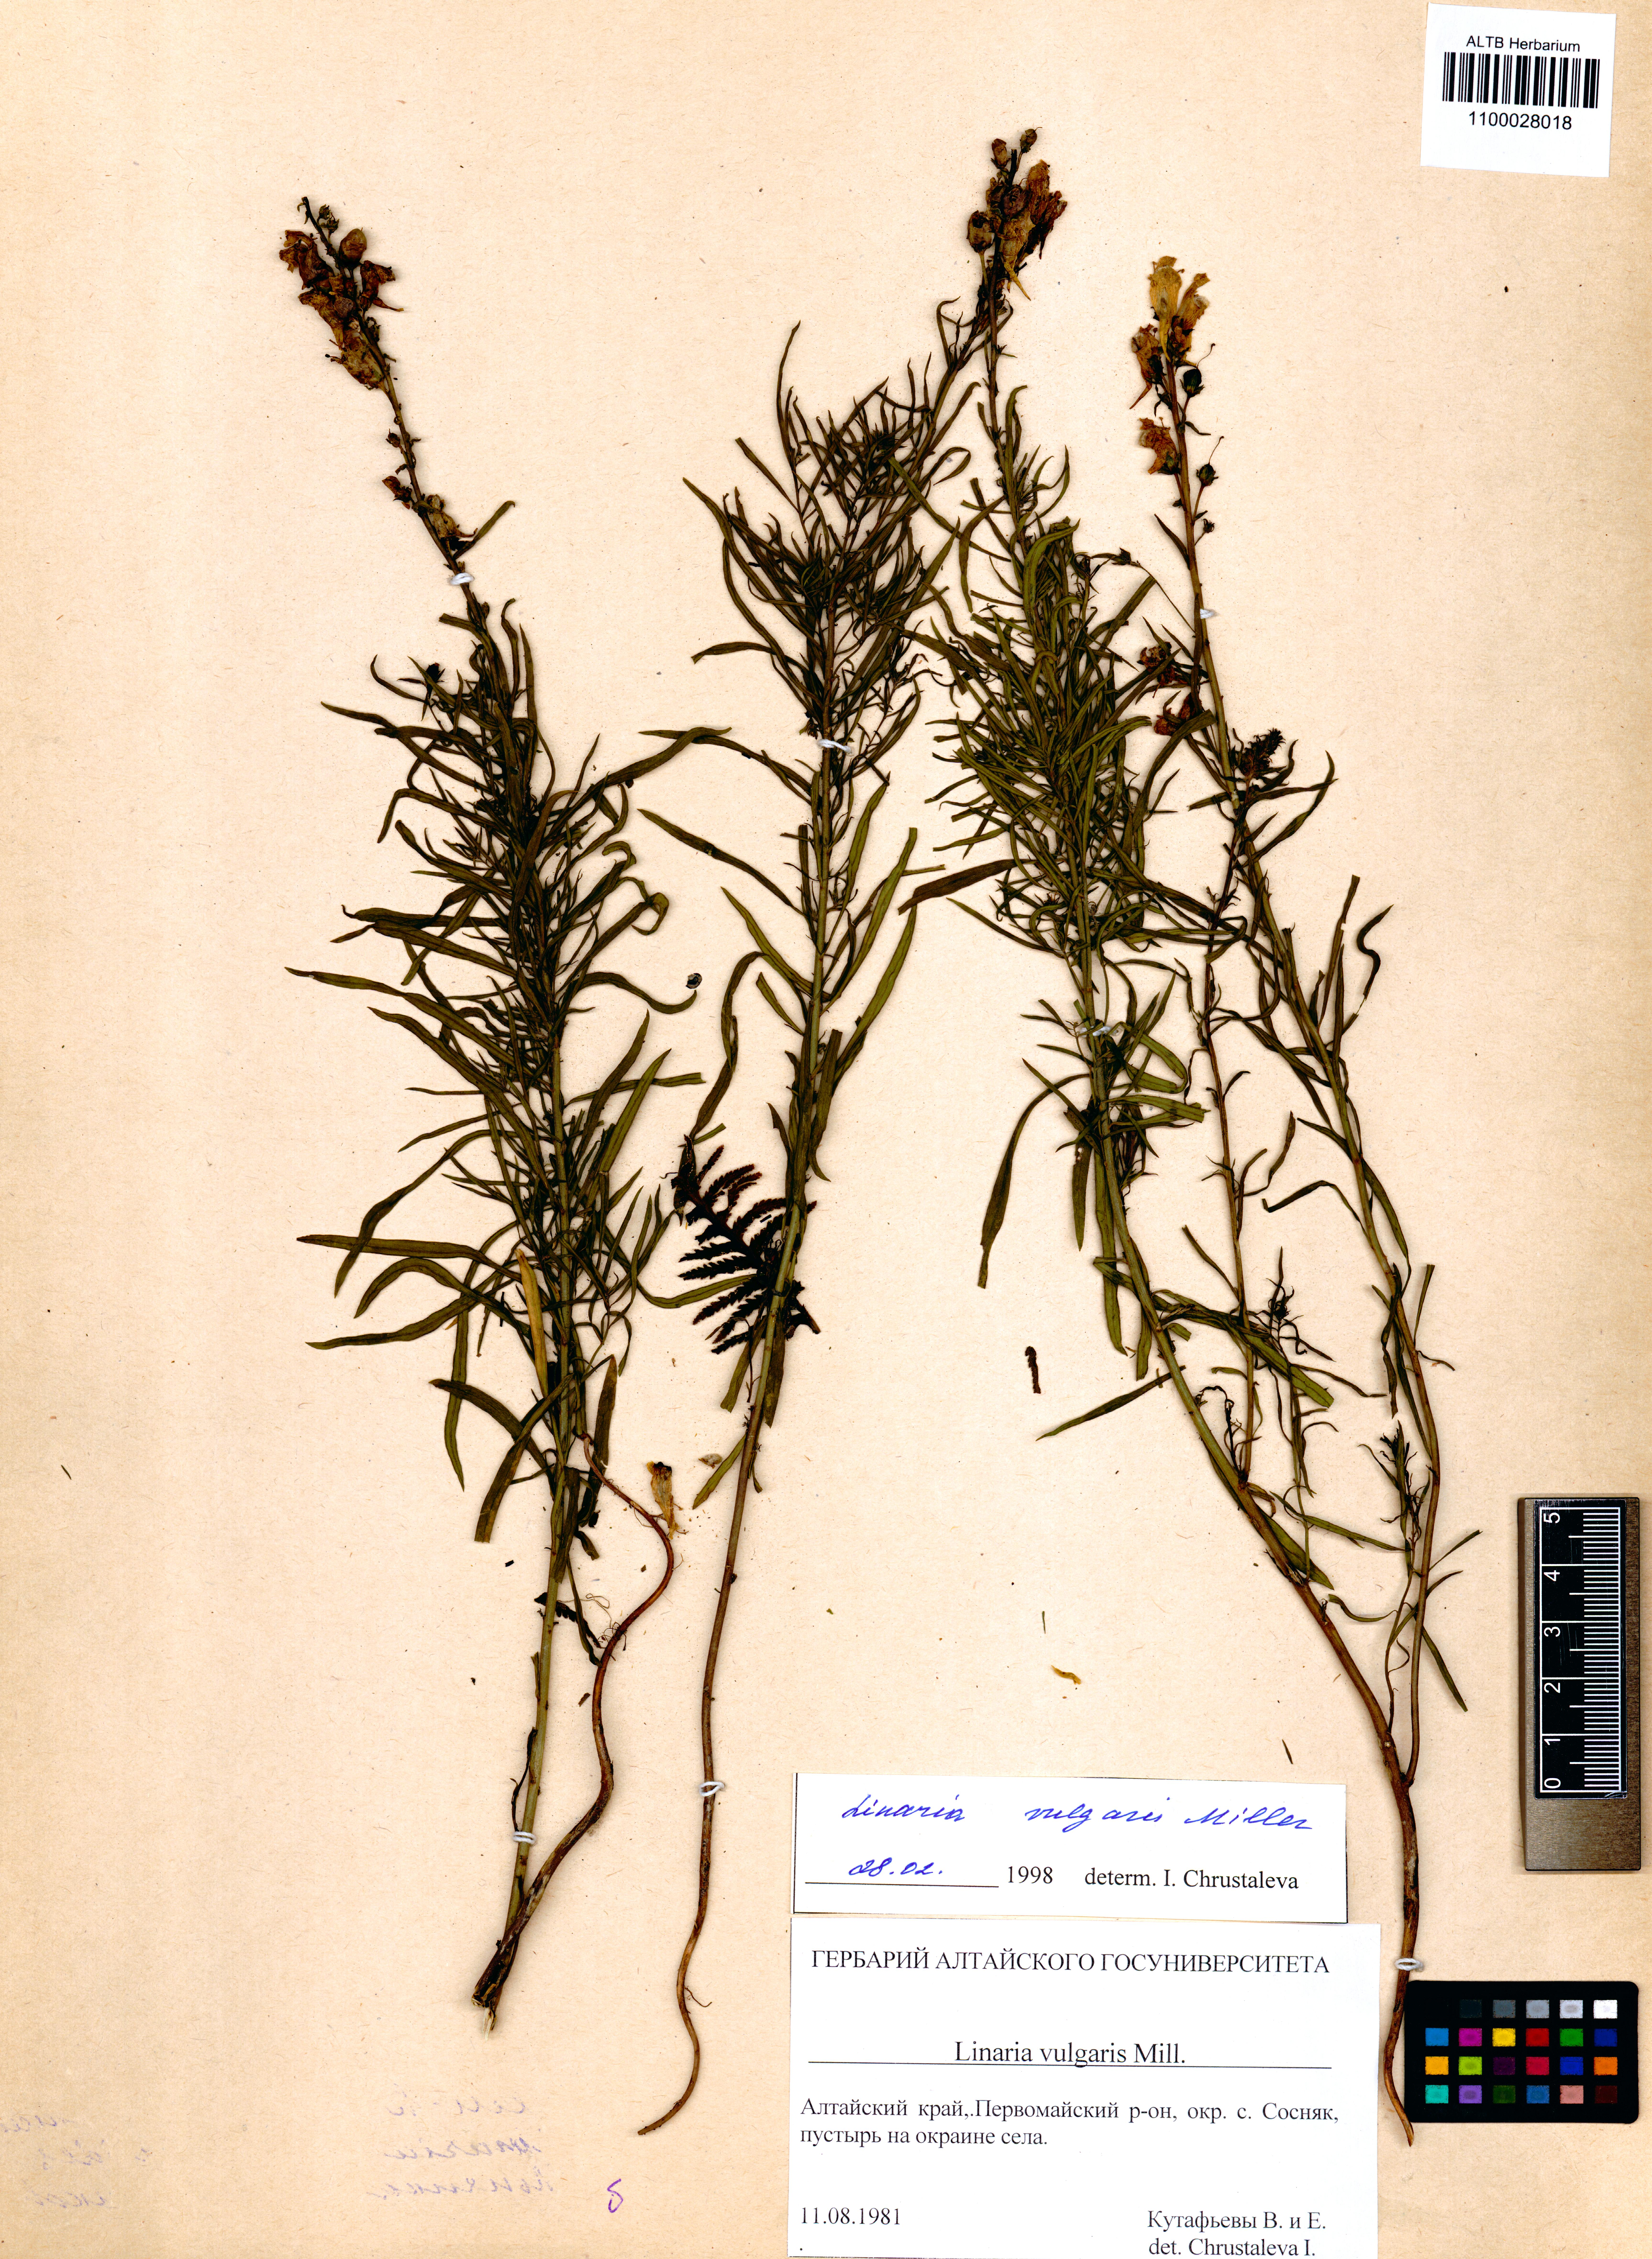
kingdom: Plantae
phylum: Tracheophyta
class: Magnoliopsida
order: Lamiales
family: Plantaginaceae
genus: Linaria
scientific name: Linaria vulgaris
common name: Butter and eggs
